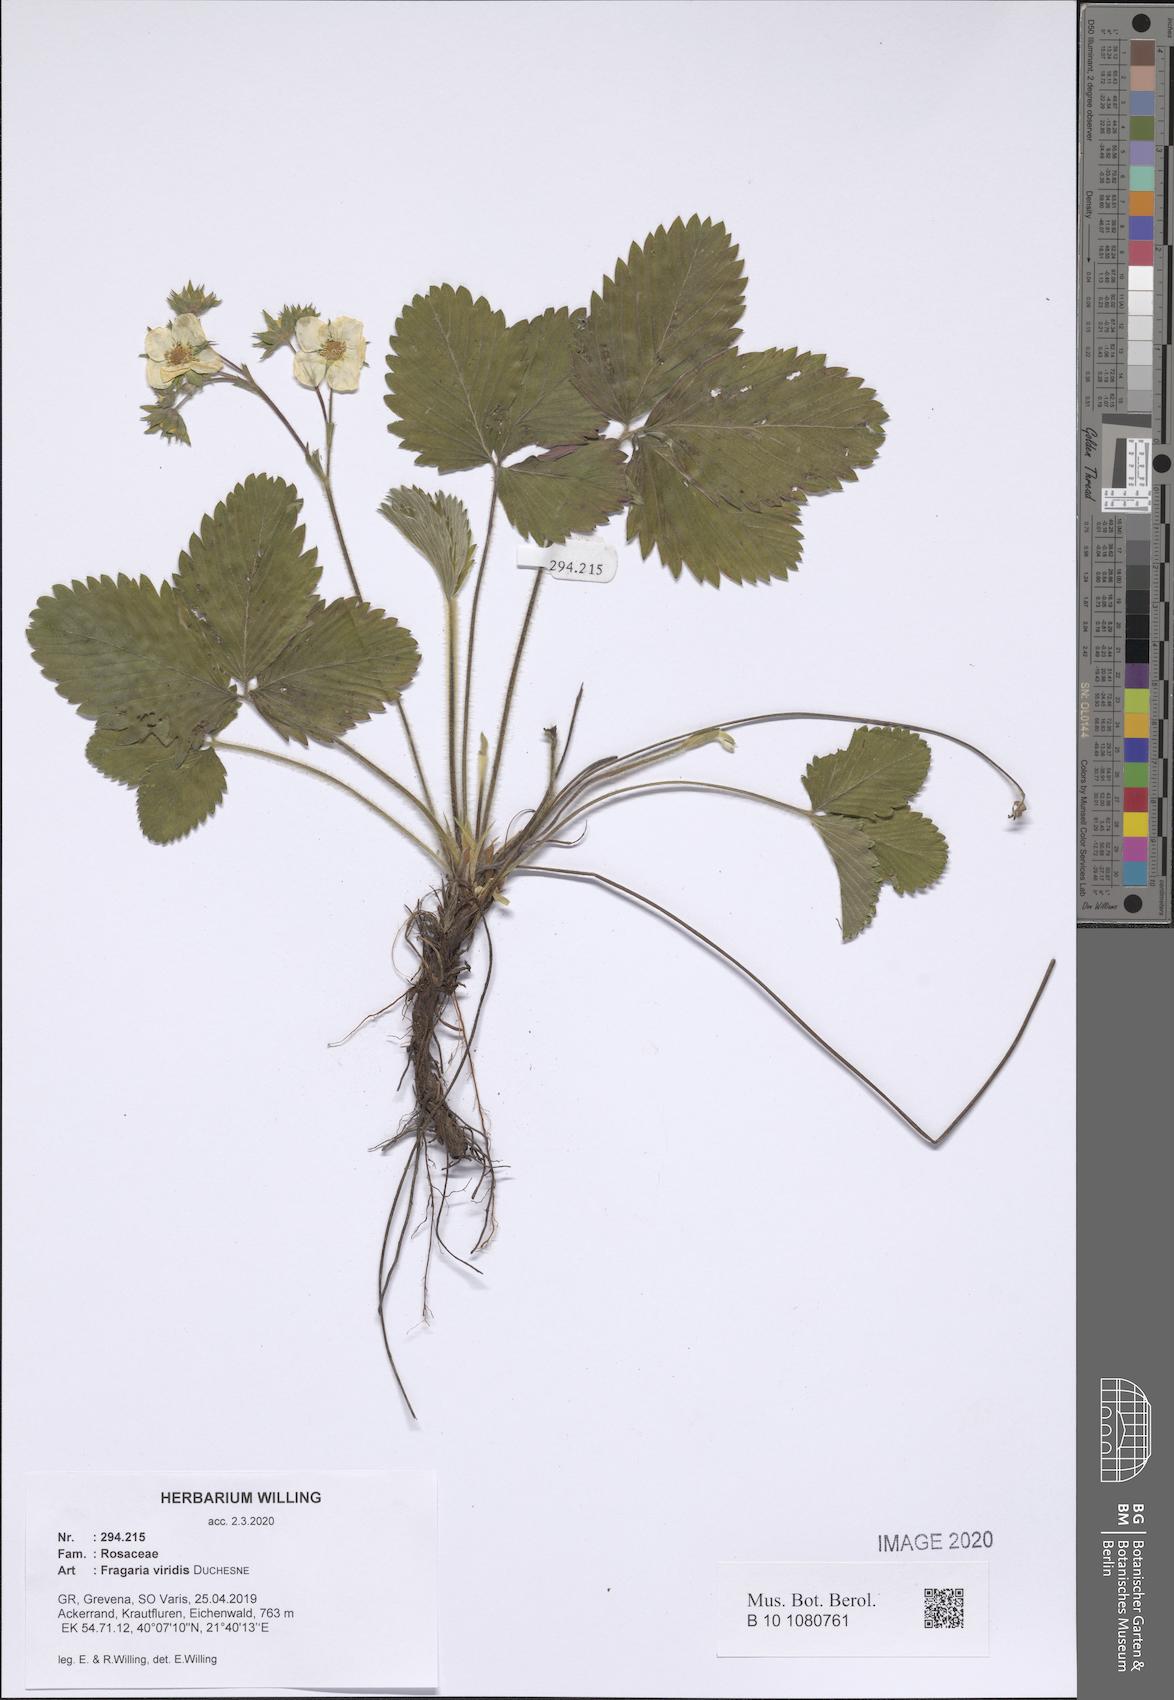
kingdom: Plantae
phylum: Tracheophyta
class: Magnoliopsida
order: Rosales
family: Rosaceae
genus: Fragaria
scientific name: Fragaria viridis
